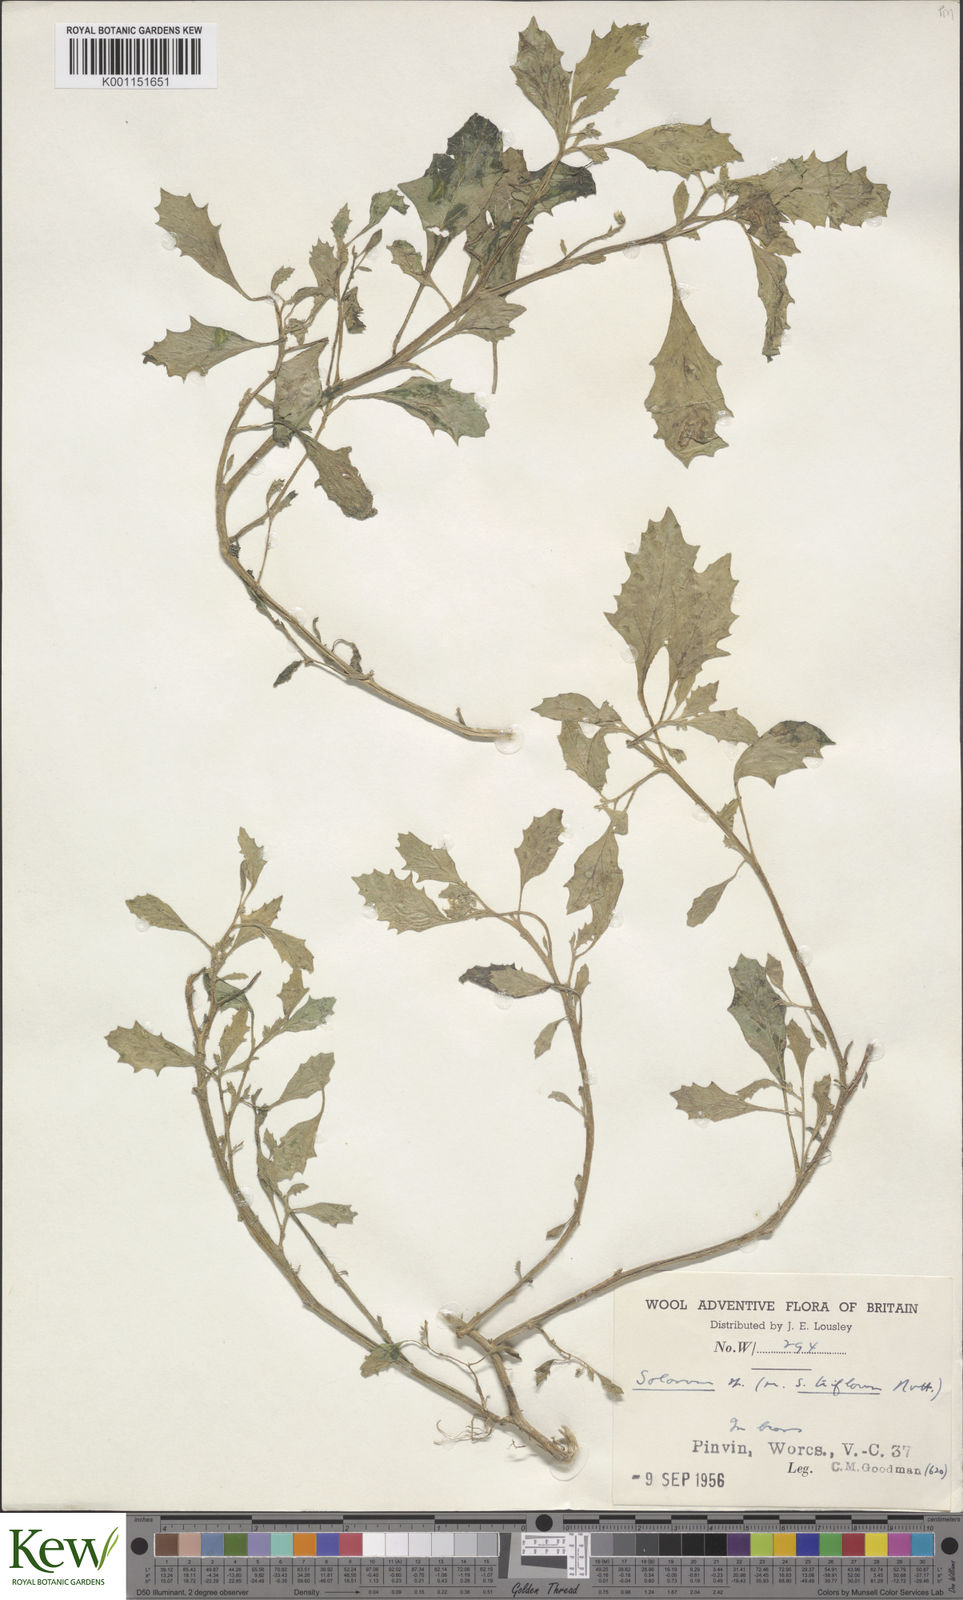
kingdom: Plantae
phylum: Tracheophyta
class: Magnoliopsida
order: Solanales
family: Solanaceae
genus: Solanum
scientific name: Solanum
